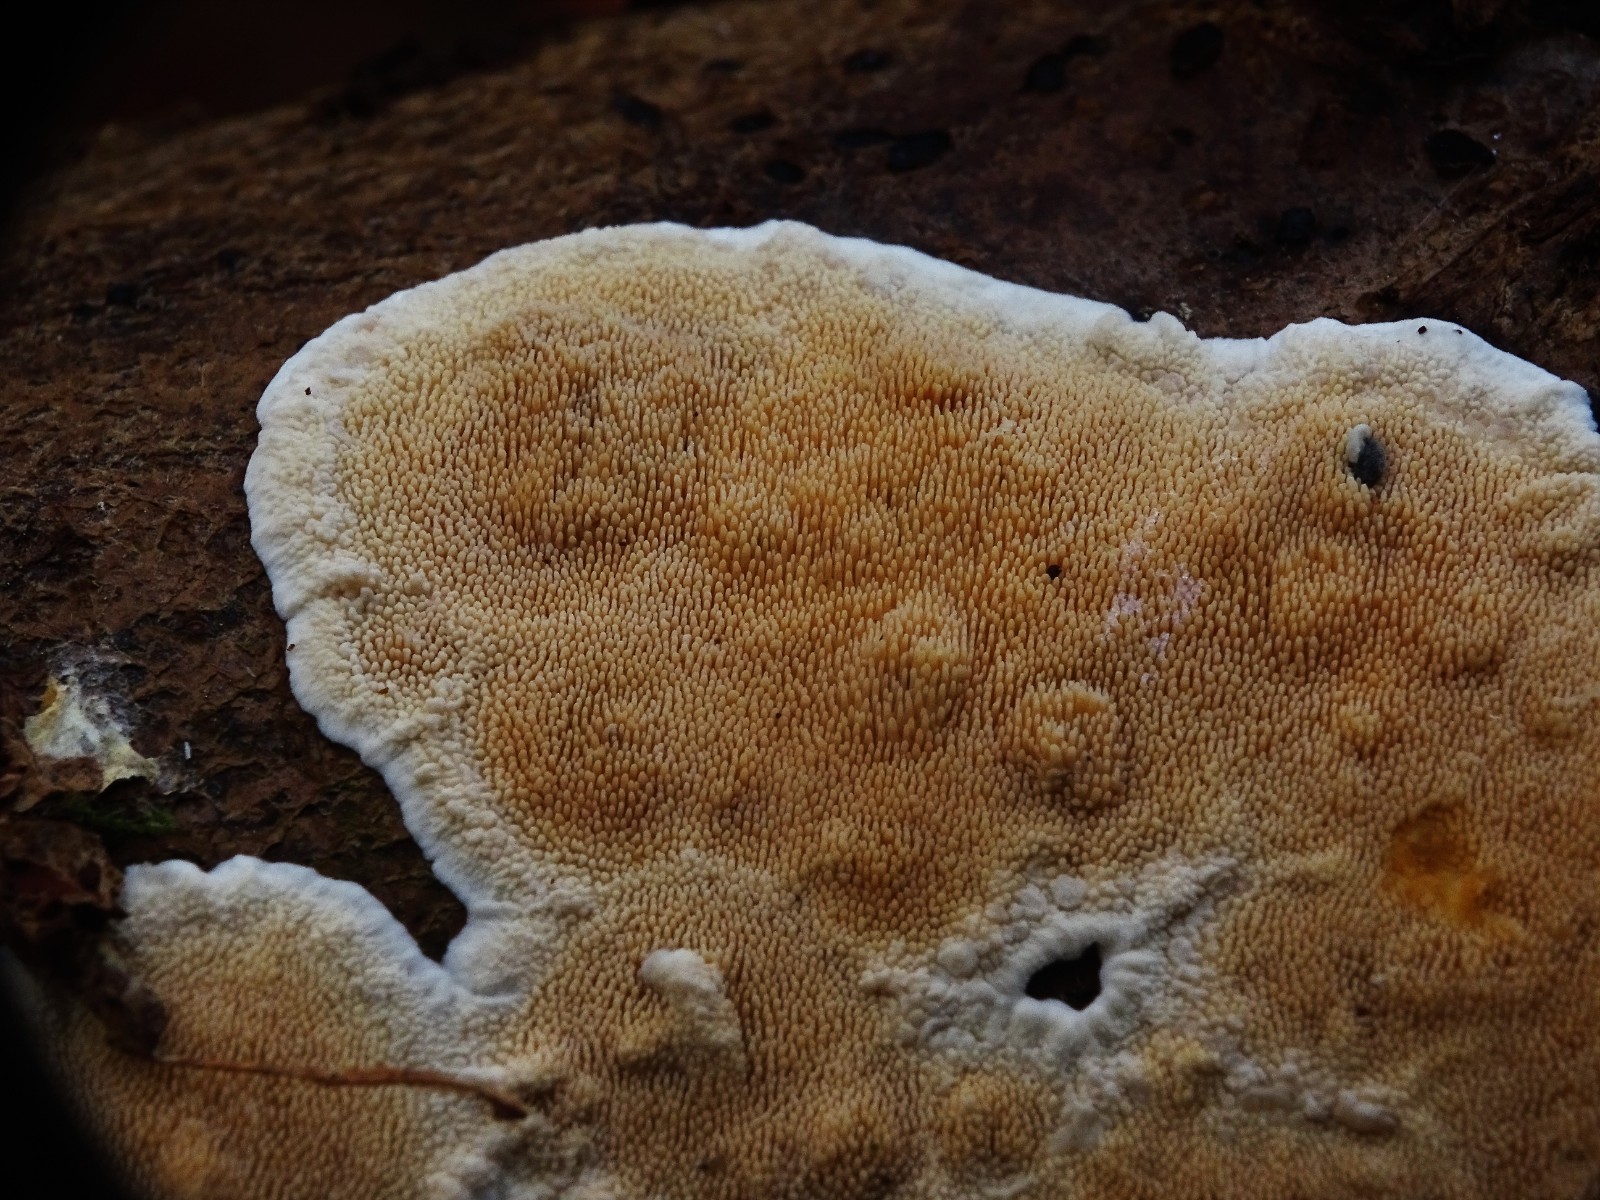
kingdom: Fungi
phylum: Basidiomycota
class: Agaricomycetes
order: Polyporales
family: Steccherinaceae
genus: Steccherinum
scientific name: Steccherinum ochraceum
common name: almindelig skønpig
